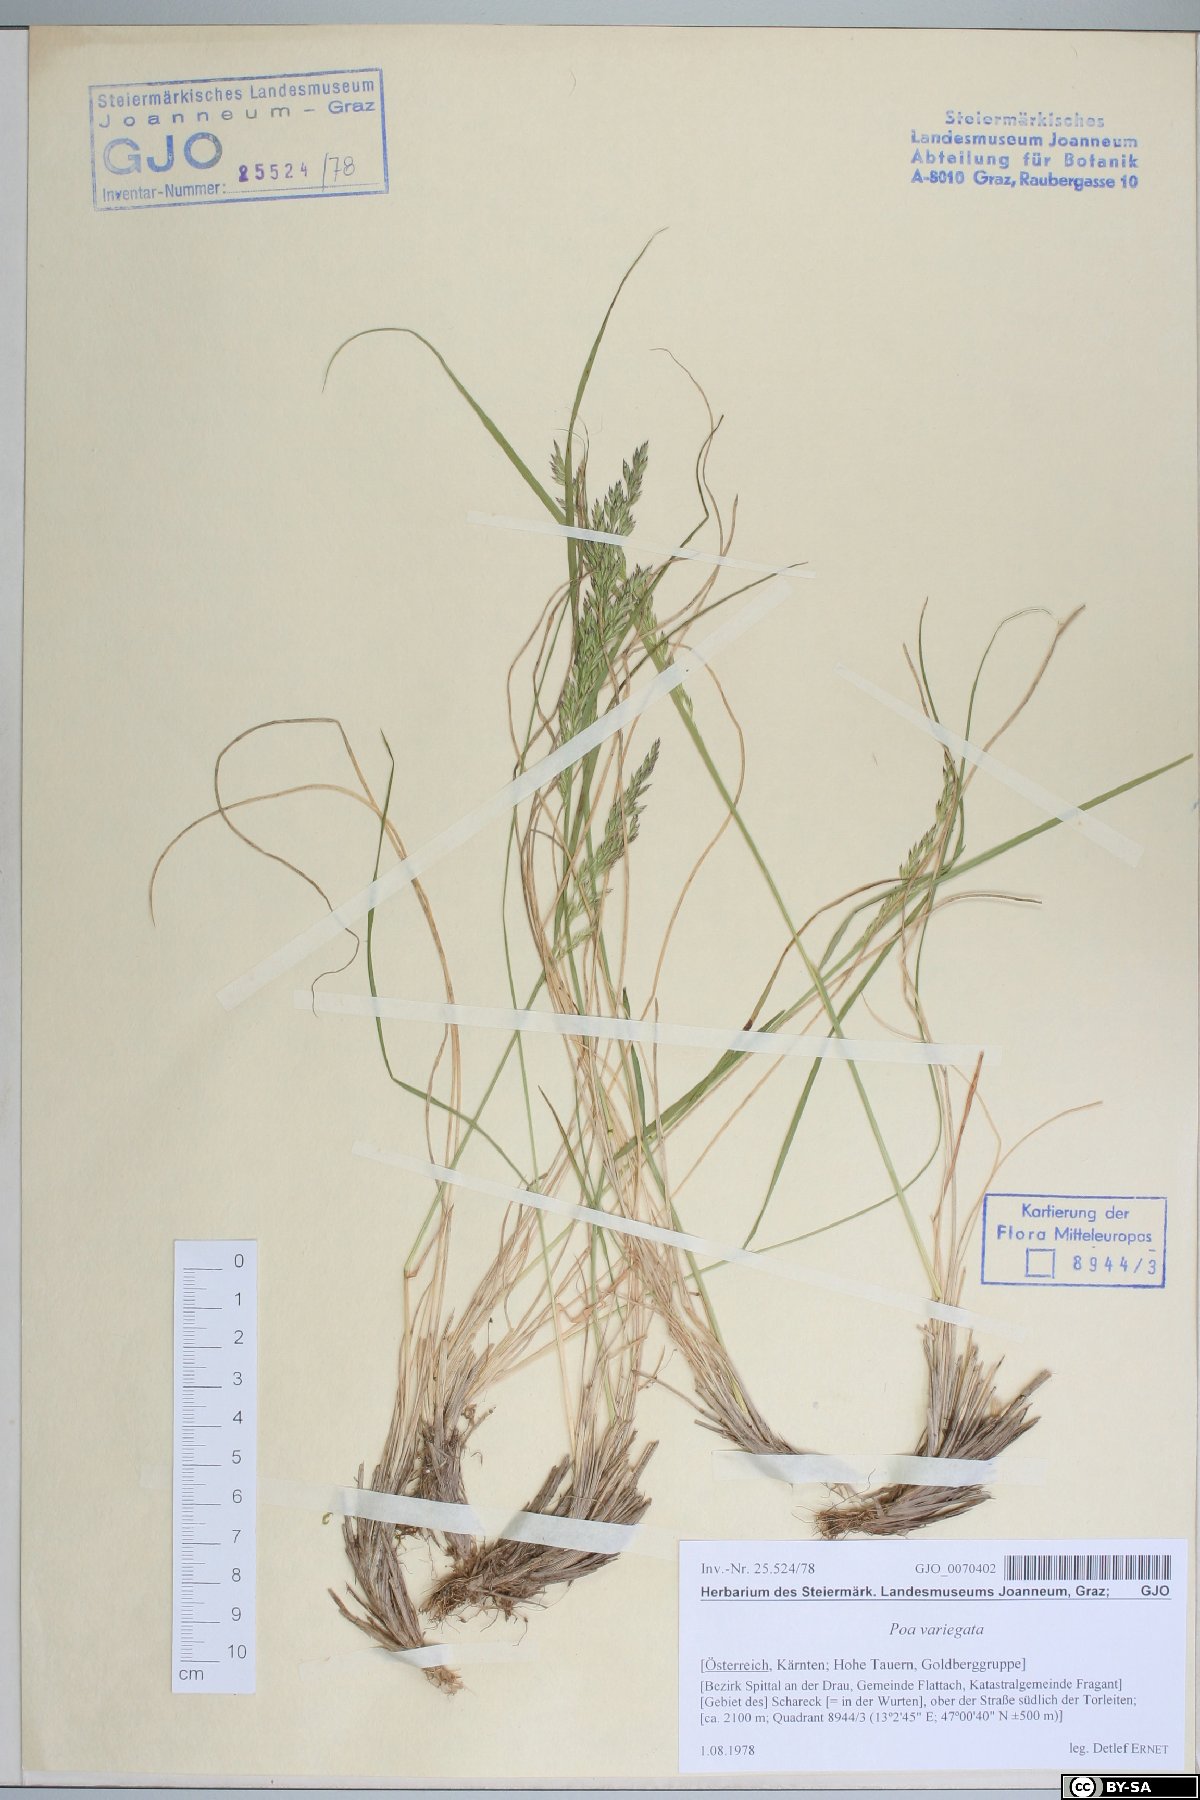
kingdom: Plantae
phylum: Tracheophyta
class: Liliopsida
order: Poales
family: Poaceae
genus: Bellardiochloa
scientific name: Bellardiochloa variegata
